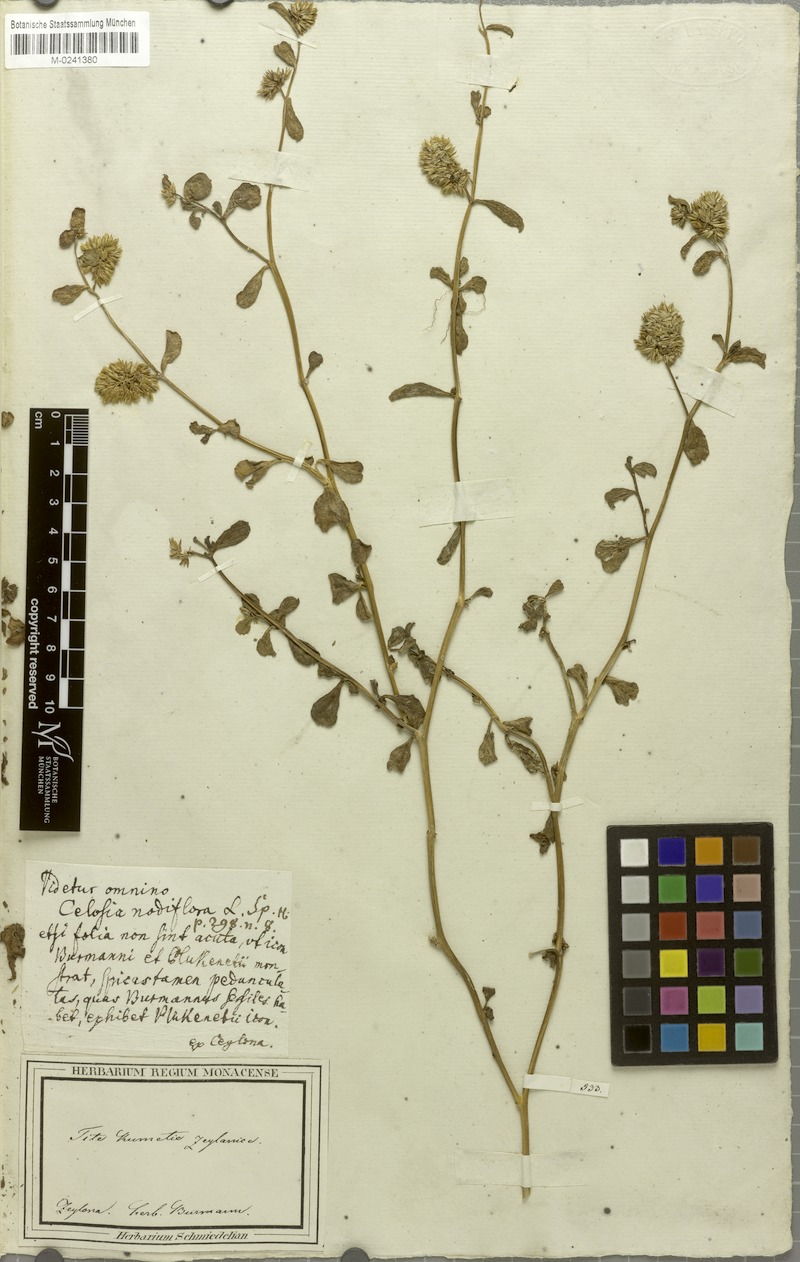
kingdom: Plantae
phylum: Tracheophyta
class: Magnoliopsida
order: Caryophyllales
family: Amaranthaceae
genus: Allmania
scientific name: Allmania nodiflora
